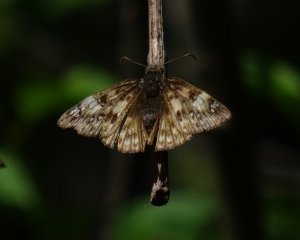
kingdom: Animalia
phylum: Arthropoda
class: Insecta
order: Lepidoptera
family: Hesperiidae
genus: Gesta
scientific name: Gesta
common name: Juvenal's Duskywing
